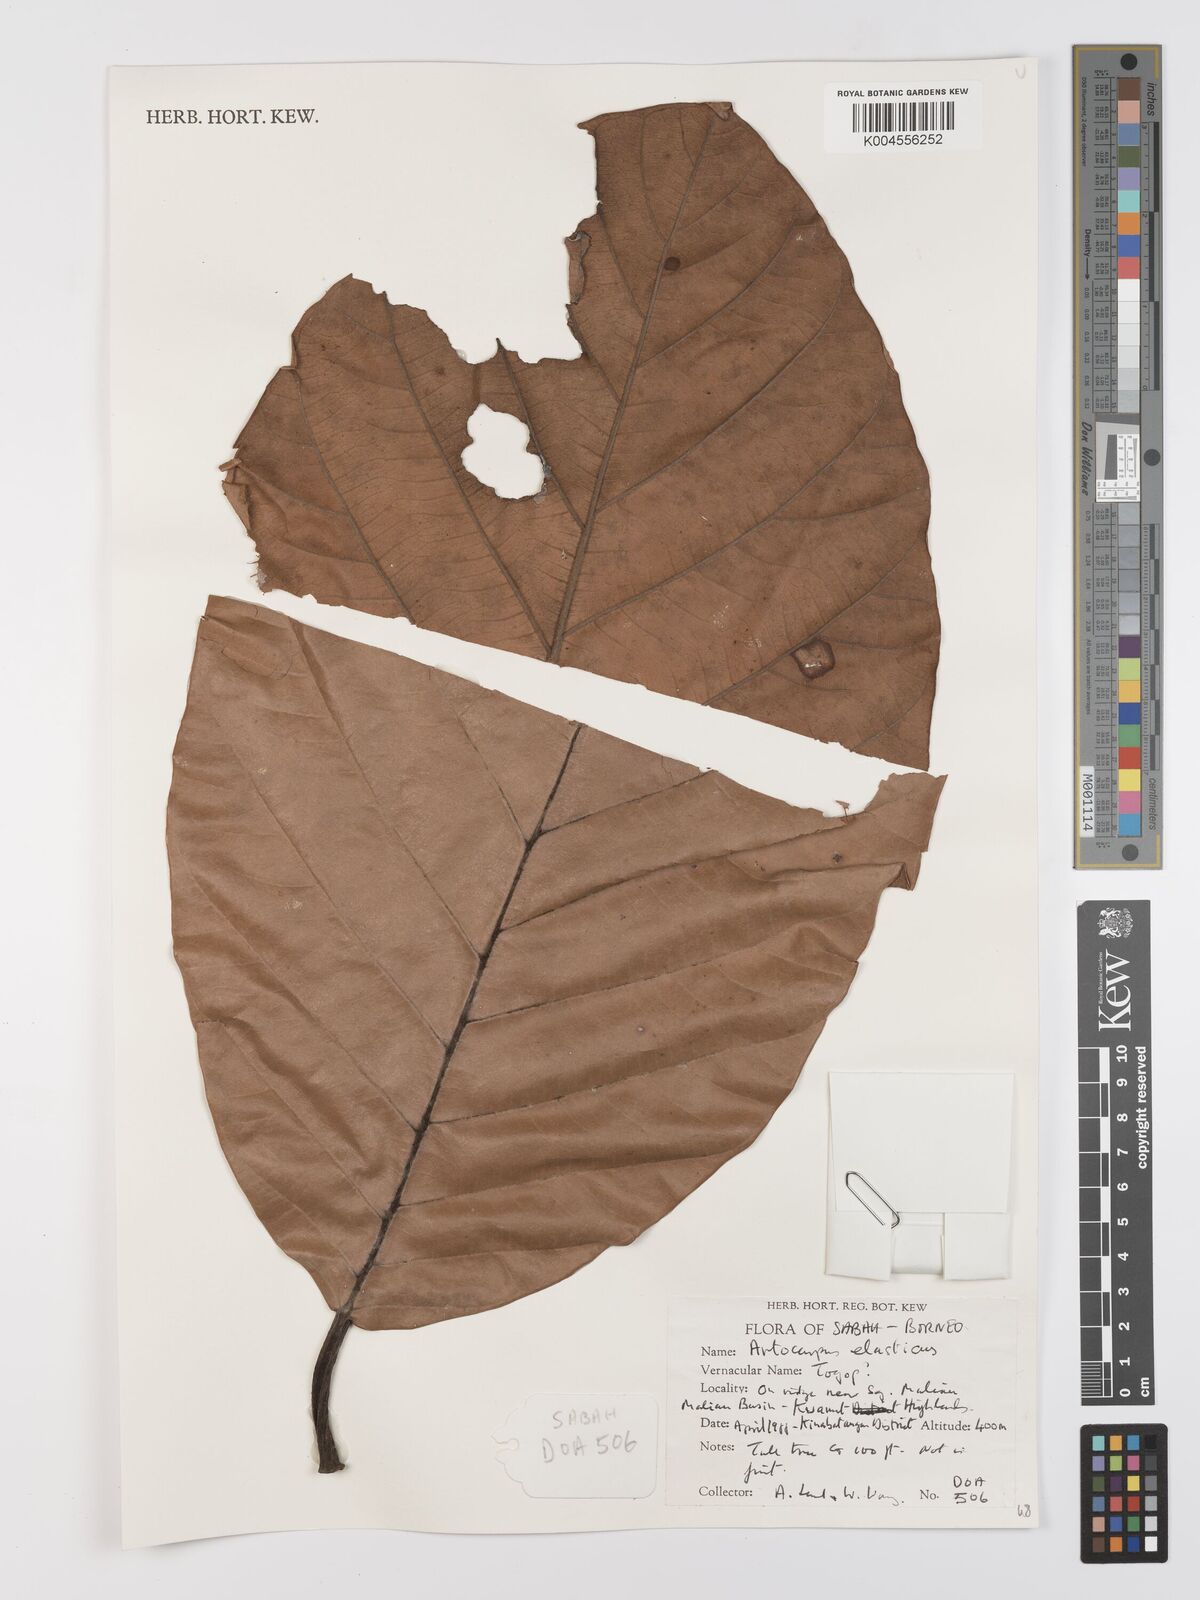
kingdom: Plantae
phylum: Tracheophyta
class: Magnoliopsida
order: Rosales
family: Moraceae
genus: Artocarpus
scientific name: Artocarpus elasticus
